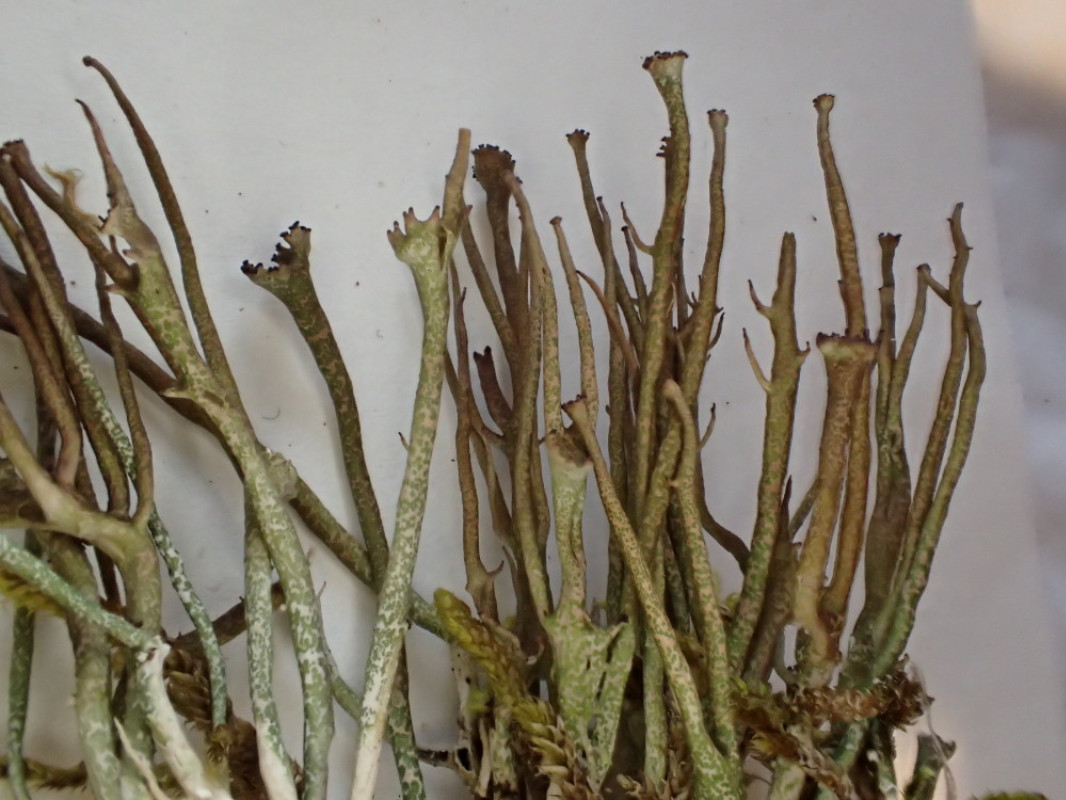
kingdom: Fungi
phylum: Ascomycota
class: Lecanoromycetes
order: Lecanorales
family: Cladoniaceae
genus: Cladonia
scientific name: Cladonia gracilis
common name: slank bægerlav
